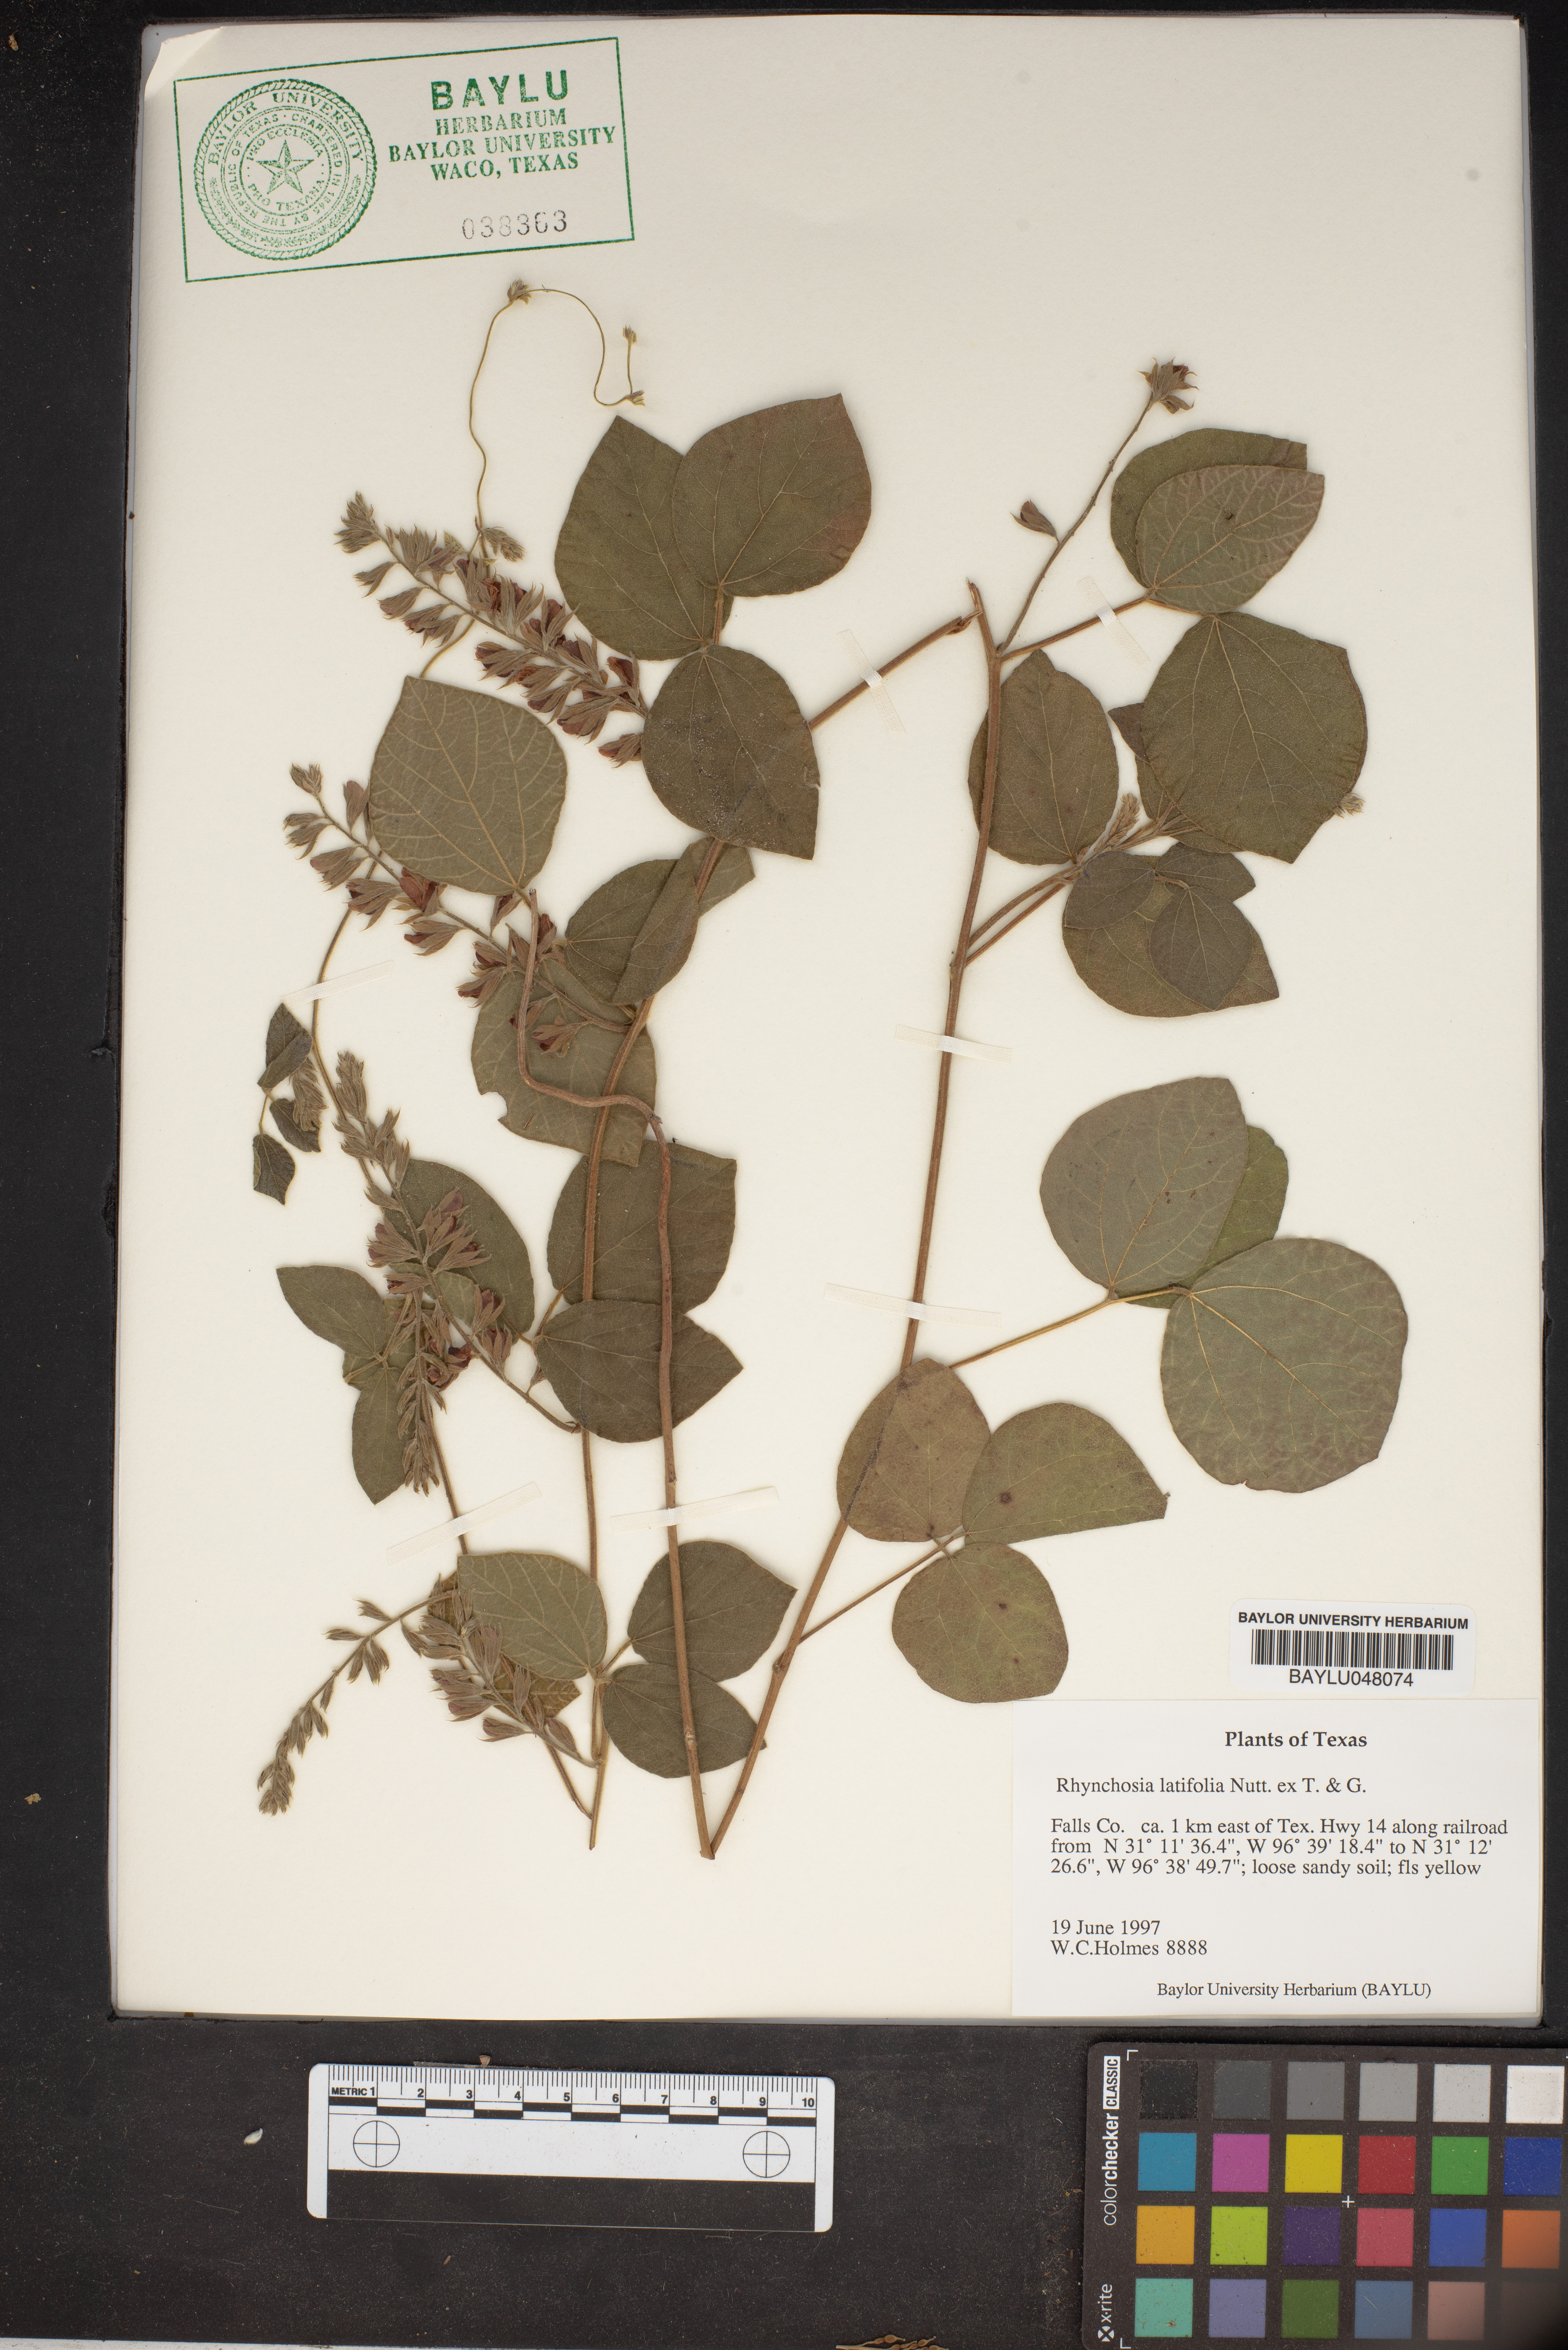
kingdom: Plantae
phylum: Tracheophyta
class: Magnoliopsida
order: Fabales
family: Fabaceae
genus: Rhynchosia
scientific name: Rhynchosia latifolia
